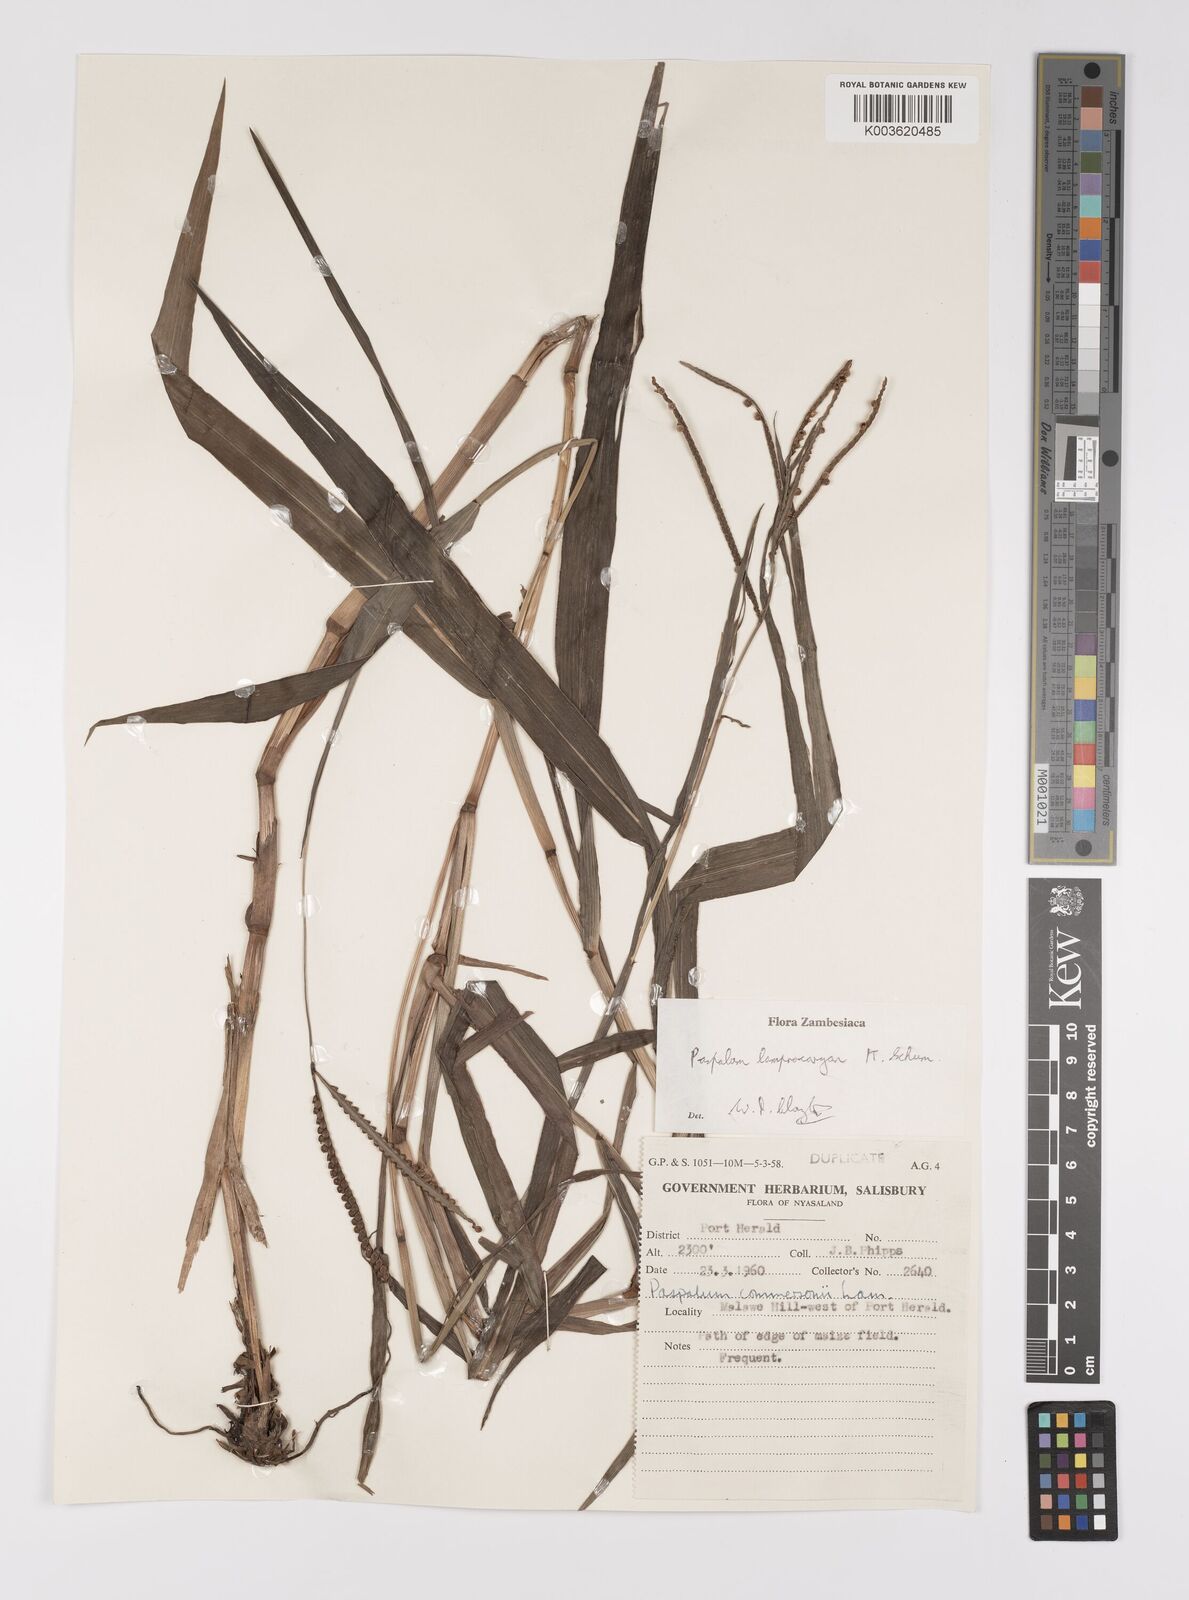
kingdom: Plantae
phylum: Tracheophyta
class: Liliopsida
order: Poales
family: Poaceae
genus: Paspalum
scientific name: Paspalum lamprocaryon
